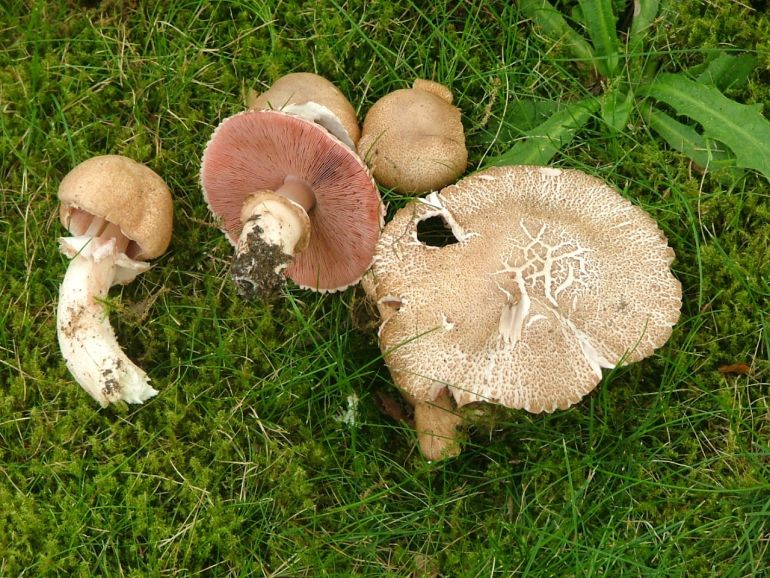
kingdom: Fungi
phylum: Basidiomycota
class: Agaricomycetes
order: Agaricales
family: Agaricaceae
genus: Agaricus
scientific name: Agaricus depauperatus
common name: finskællet champignon
